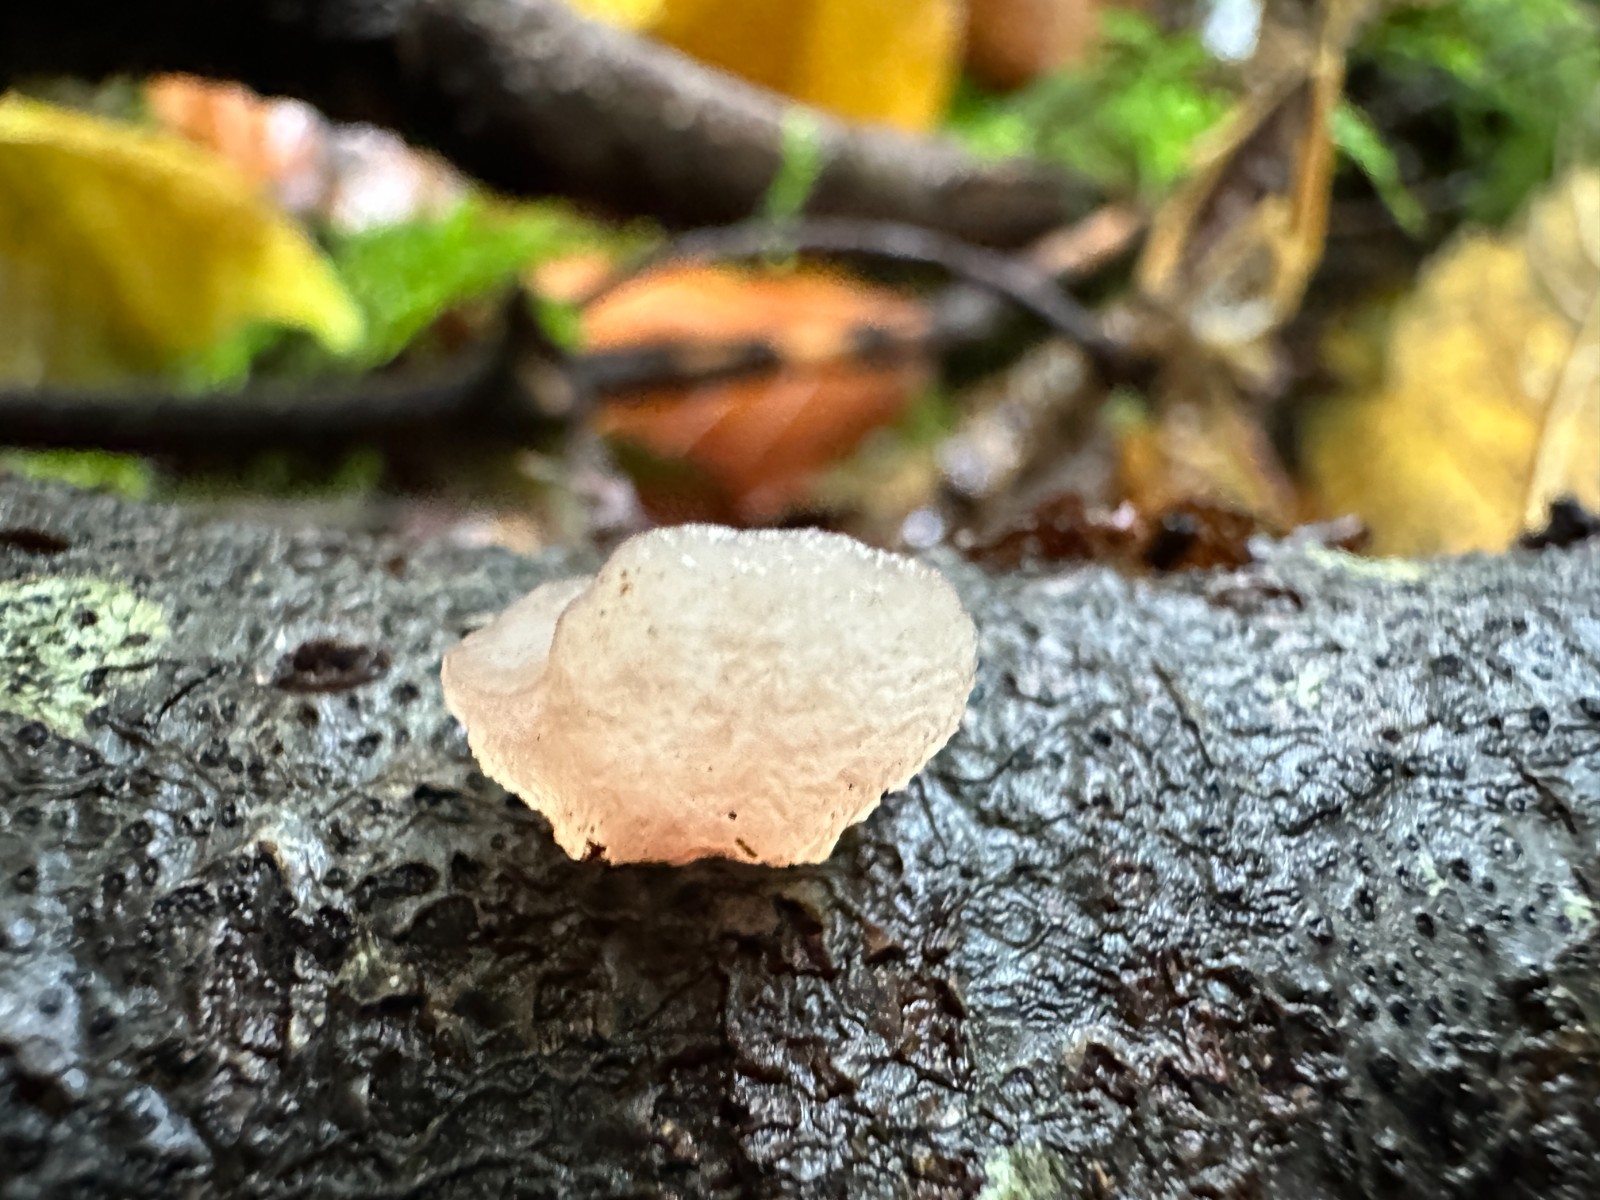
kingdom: Fungi
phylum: Basidiomycota
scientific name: Basidiomycota
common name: basidiesvampe
